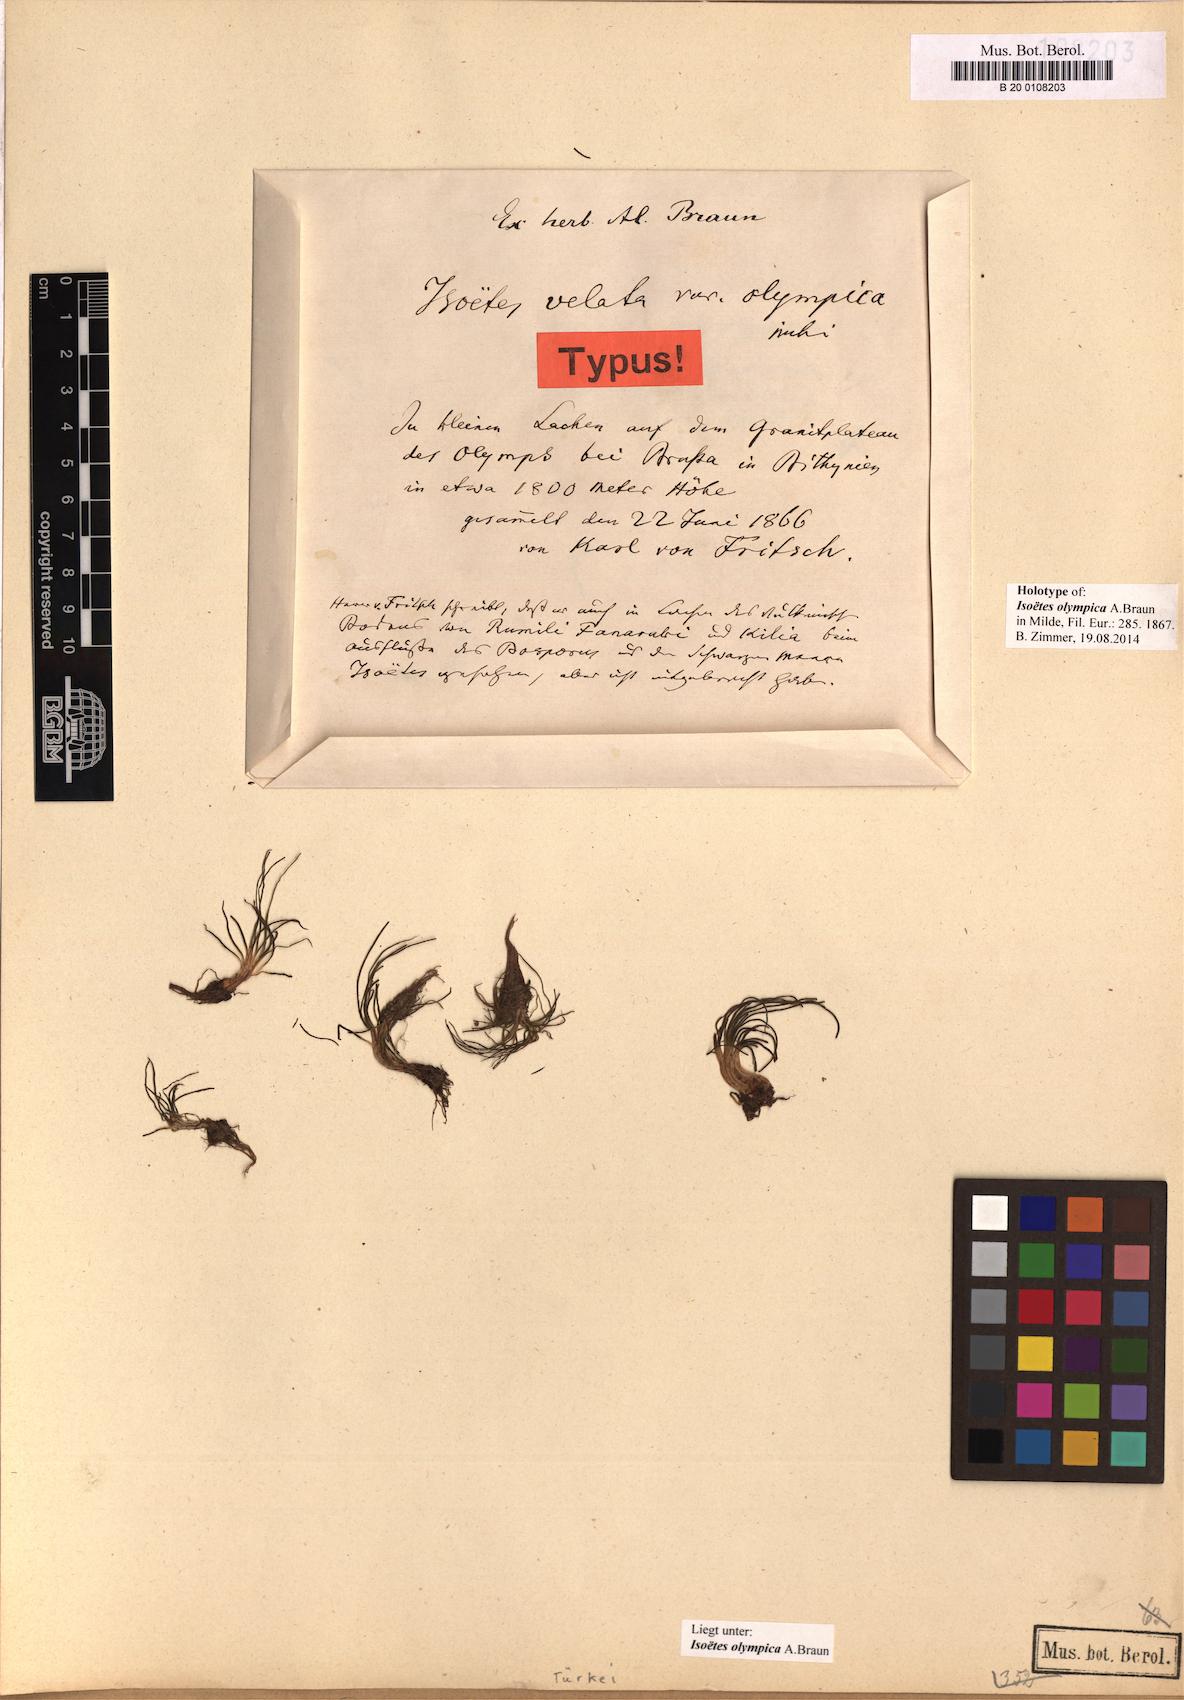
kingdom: Plantae
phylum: Tracheophyta
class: Lycopodiopsida
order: Isoetales
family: Isoetaceae
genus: Isoetes
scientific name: Isoetes olympica
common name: Olympic quillwort
